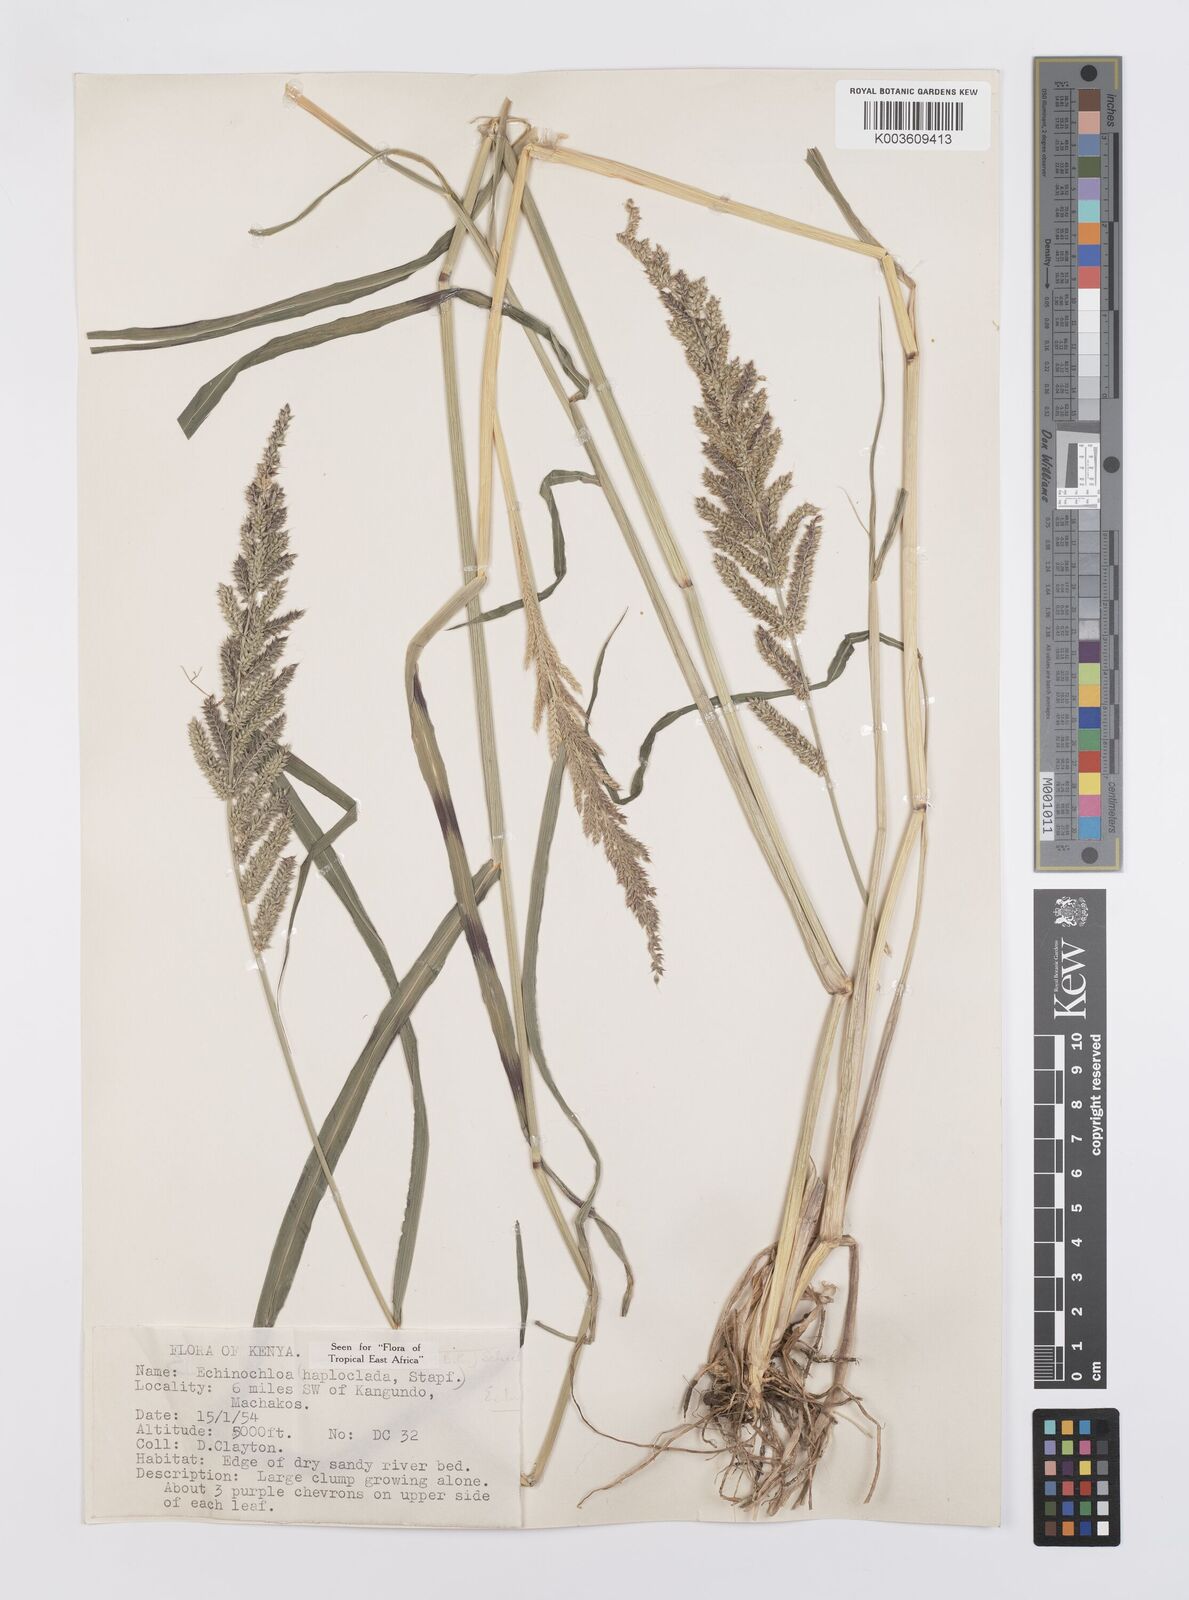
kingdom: Plantae
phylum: Tracheophyta
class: Liliopsida
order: Poales
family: Poaceae
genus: Echinochloa
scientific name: Echinochloa haploclada
